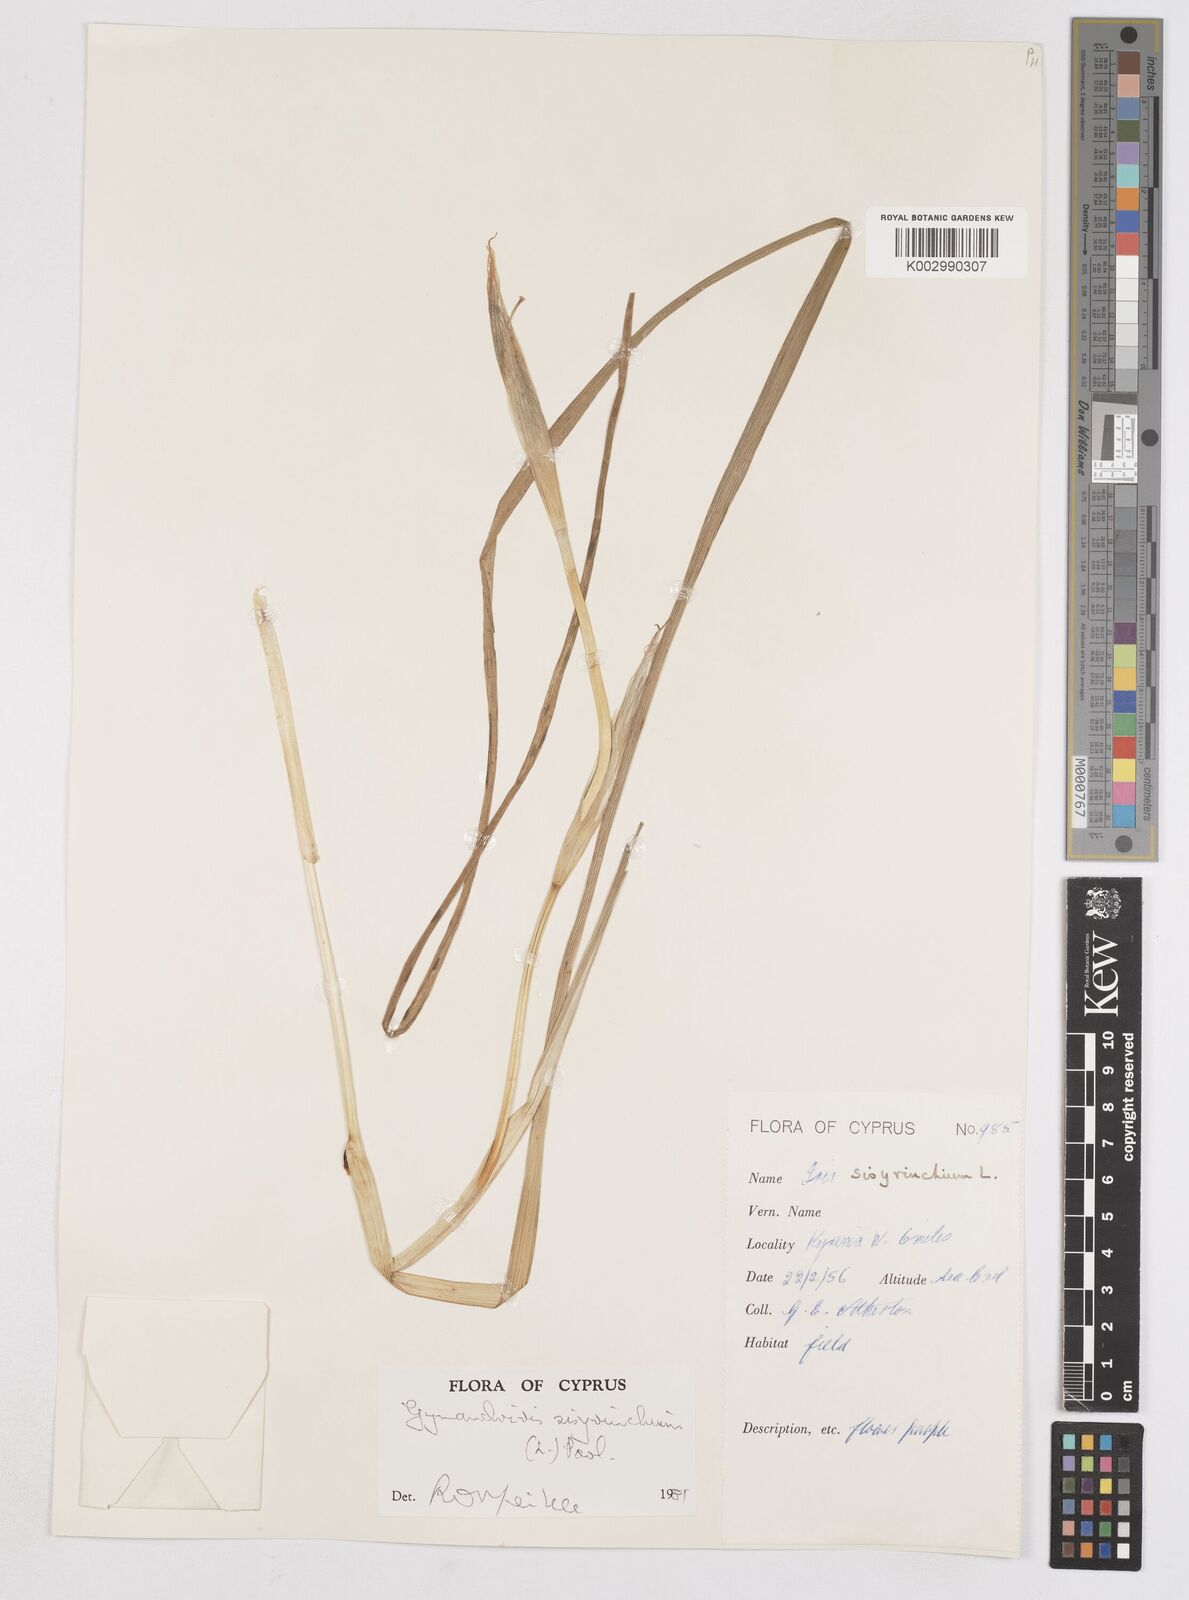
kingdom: Plantae
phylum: Tracheophyta
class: Liliopsida
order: Asparagales
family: Iridaceae
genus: Moraea
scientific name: Moraea sisyrinchium
